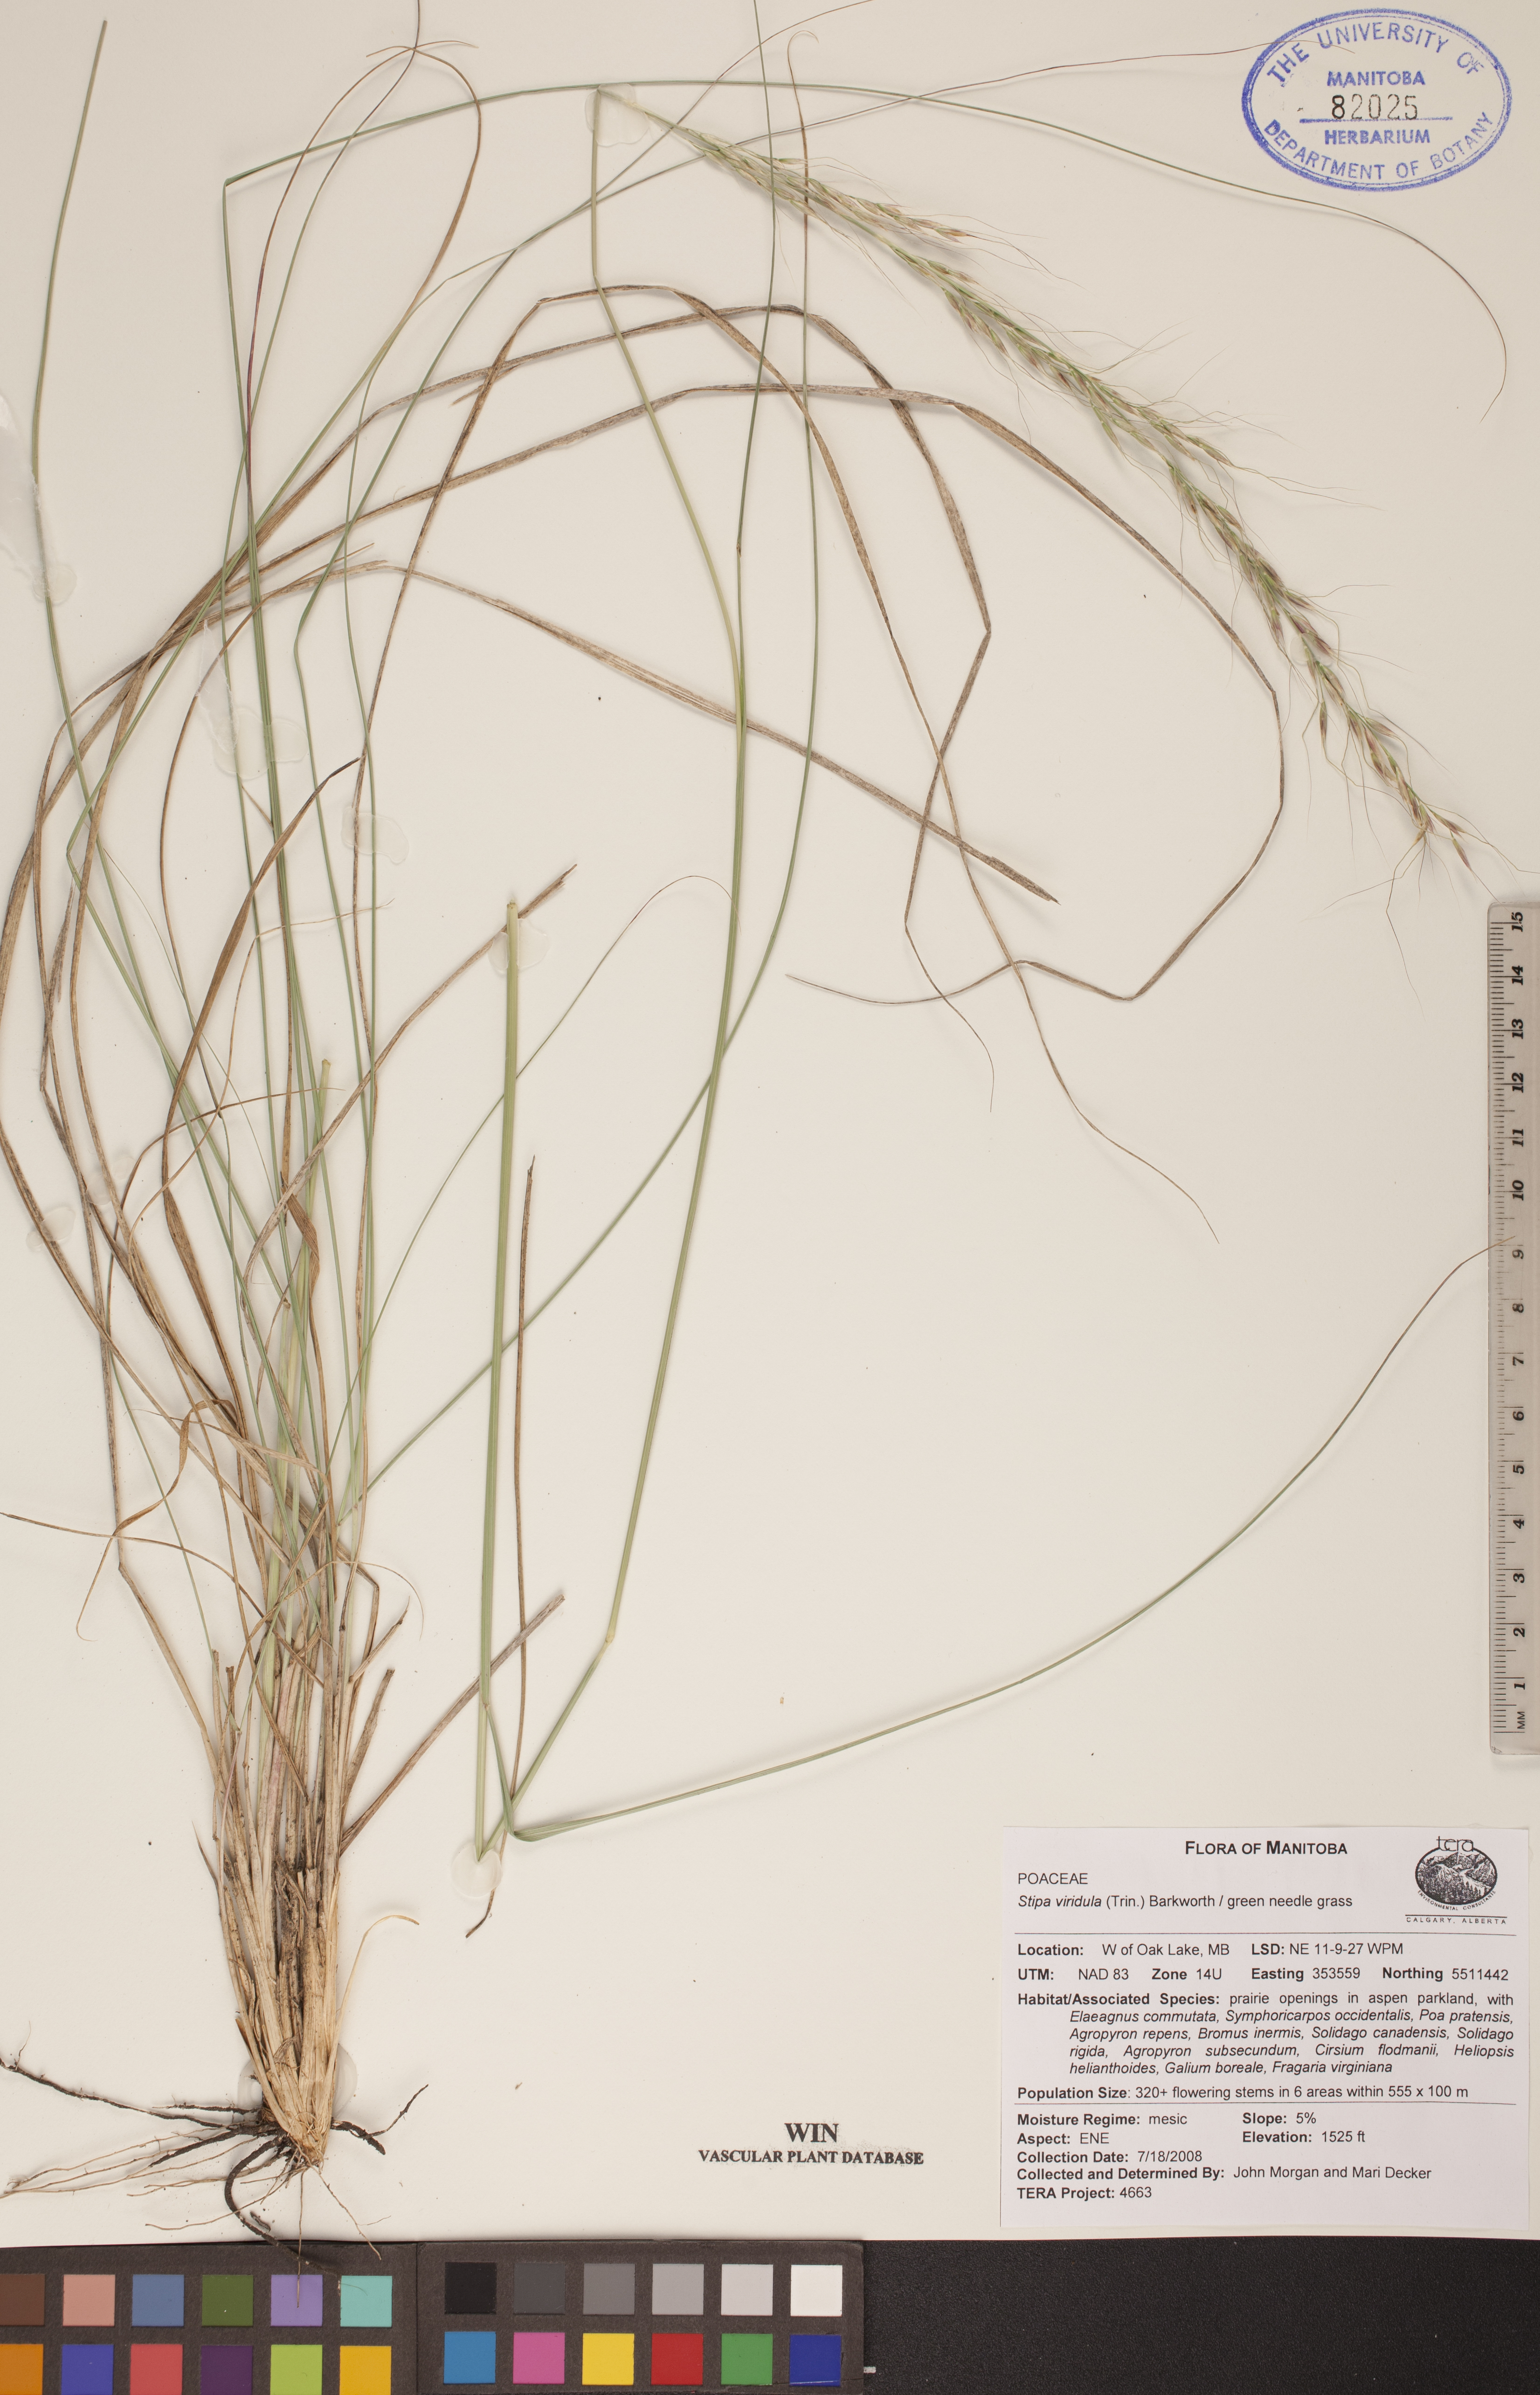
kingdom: Plantae
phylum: Tracheophyta
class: Liliopsida
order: Poales
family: Poaceae
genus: Nassella
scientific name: Nassella viridula
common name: Green needlegrass
